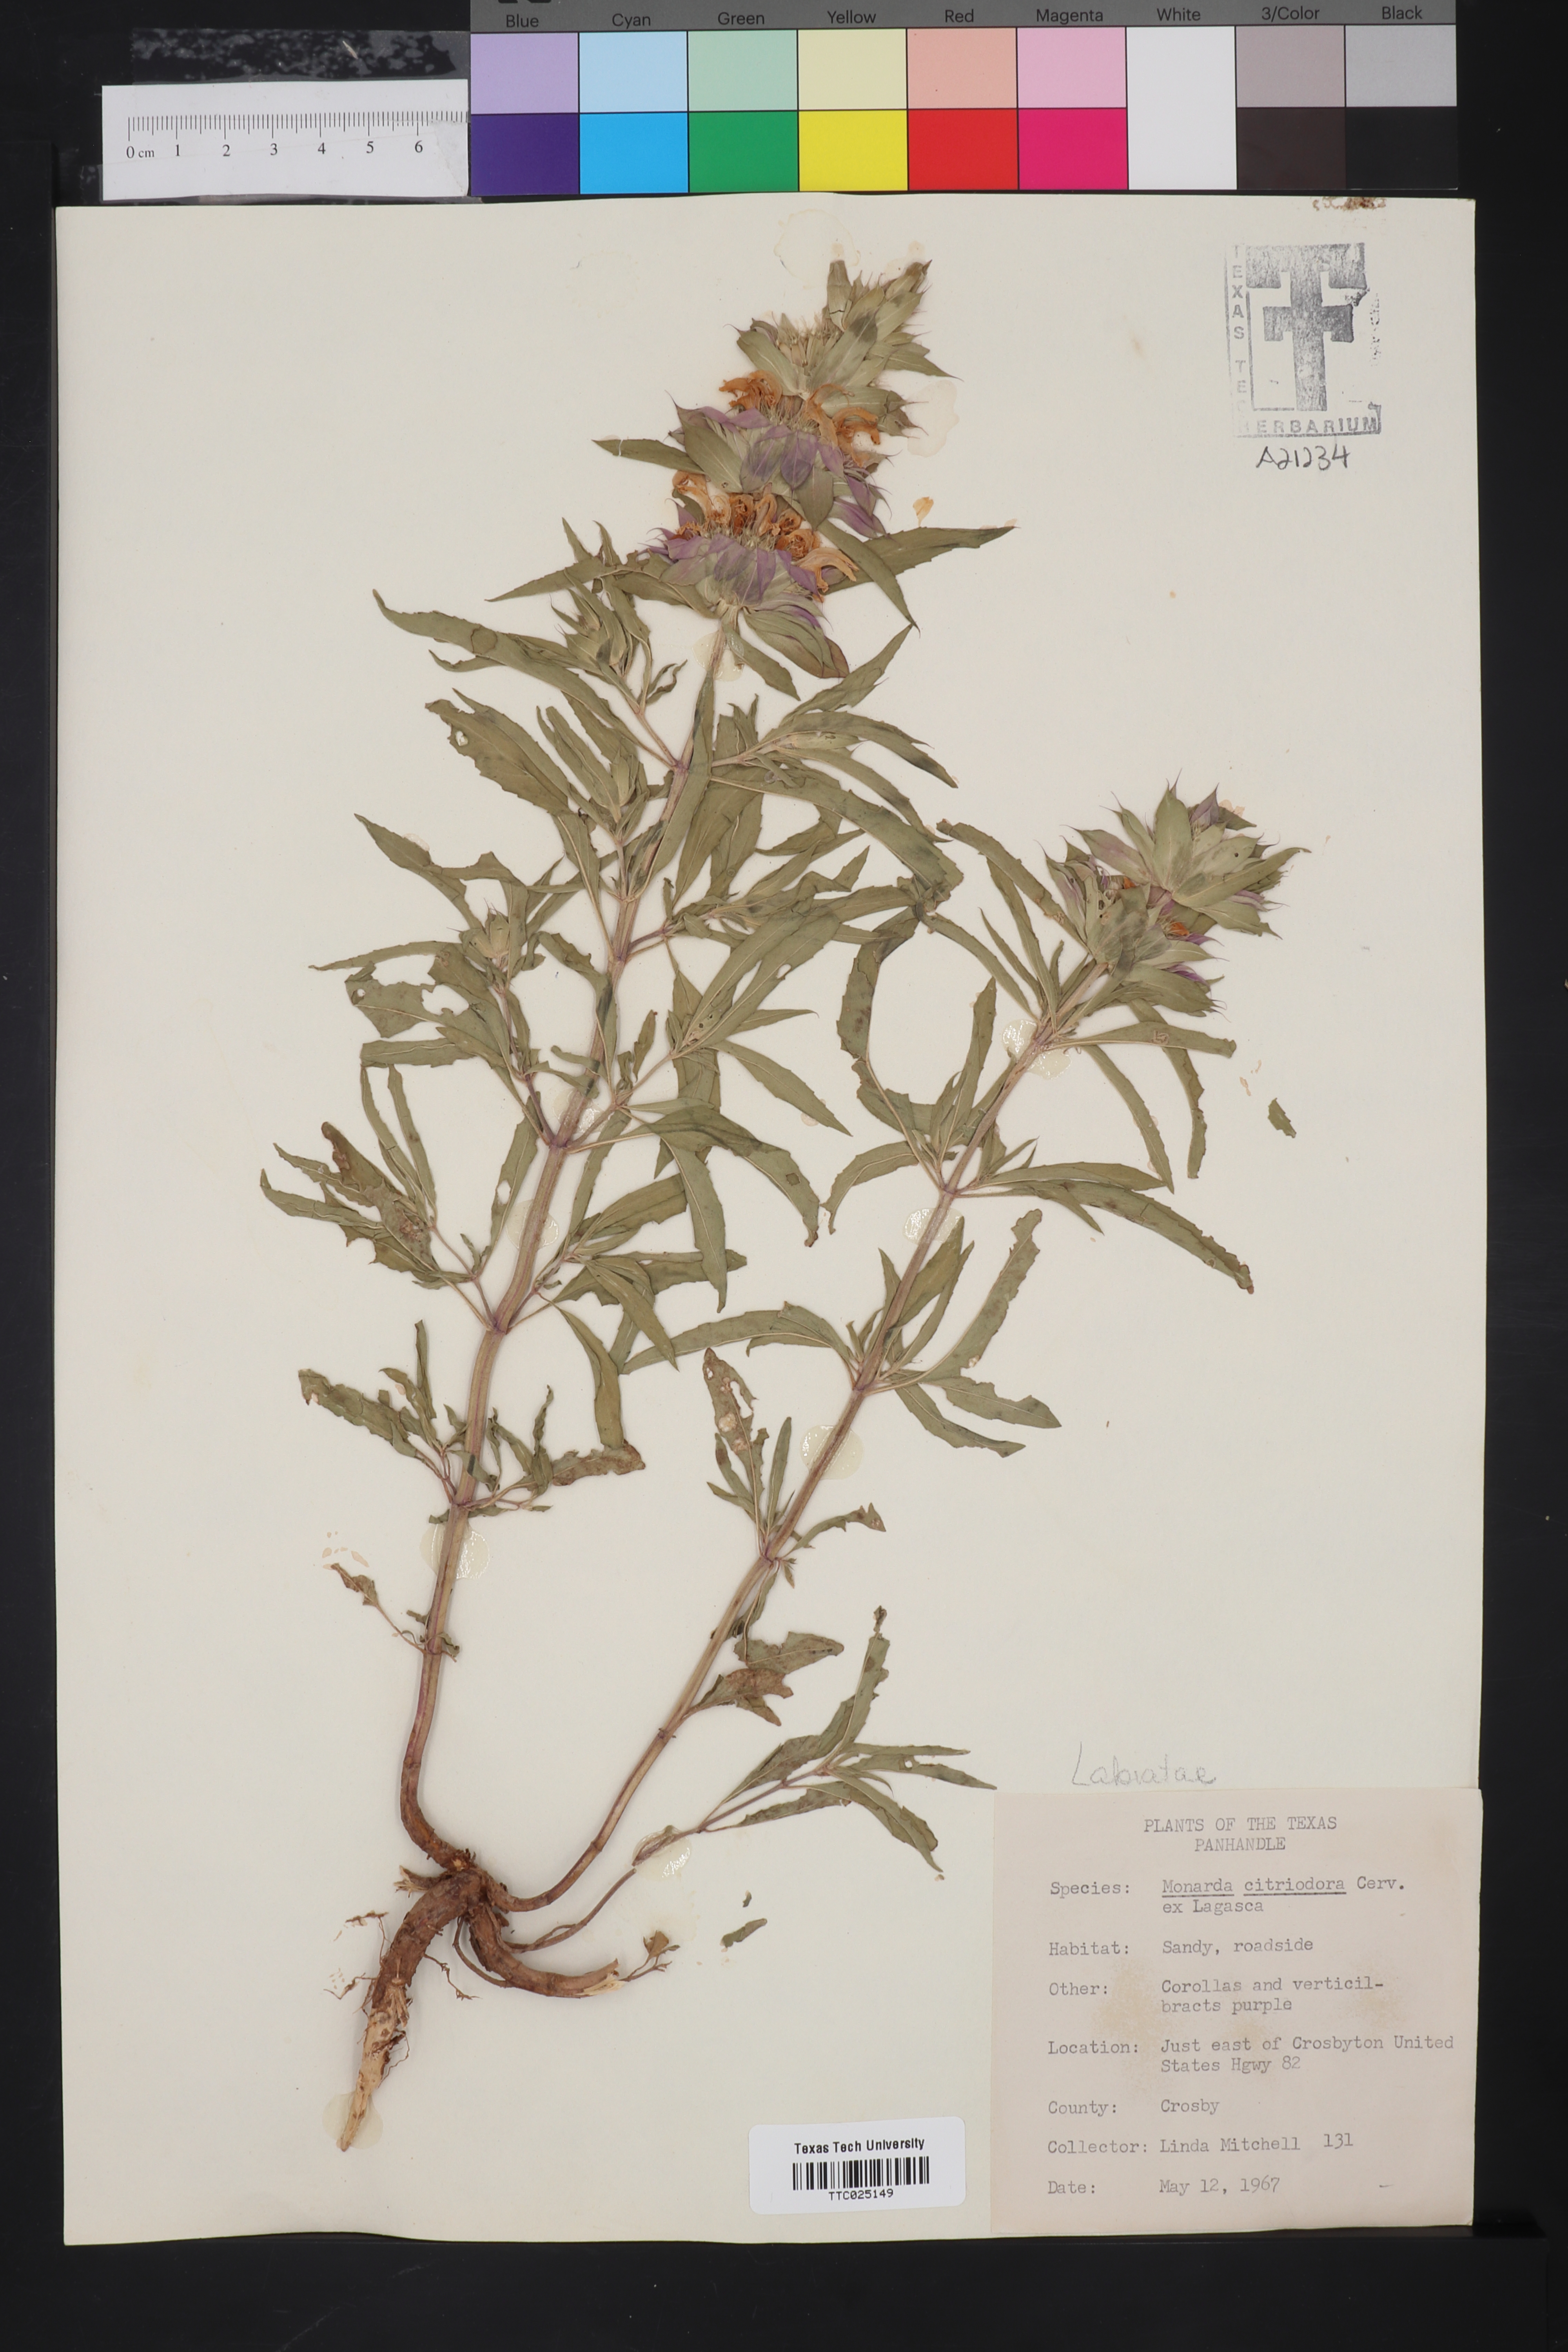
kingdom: Plantae
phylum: Tracheophyta
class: Magnoliopsida
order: Lamiales
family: Lamiaceae
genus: Monarda
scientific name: Monarda citriodora
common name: Lemon beebalm
